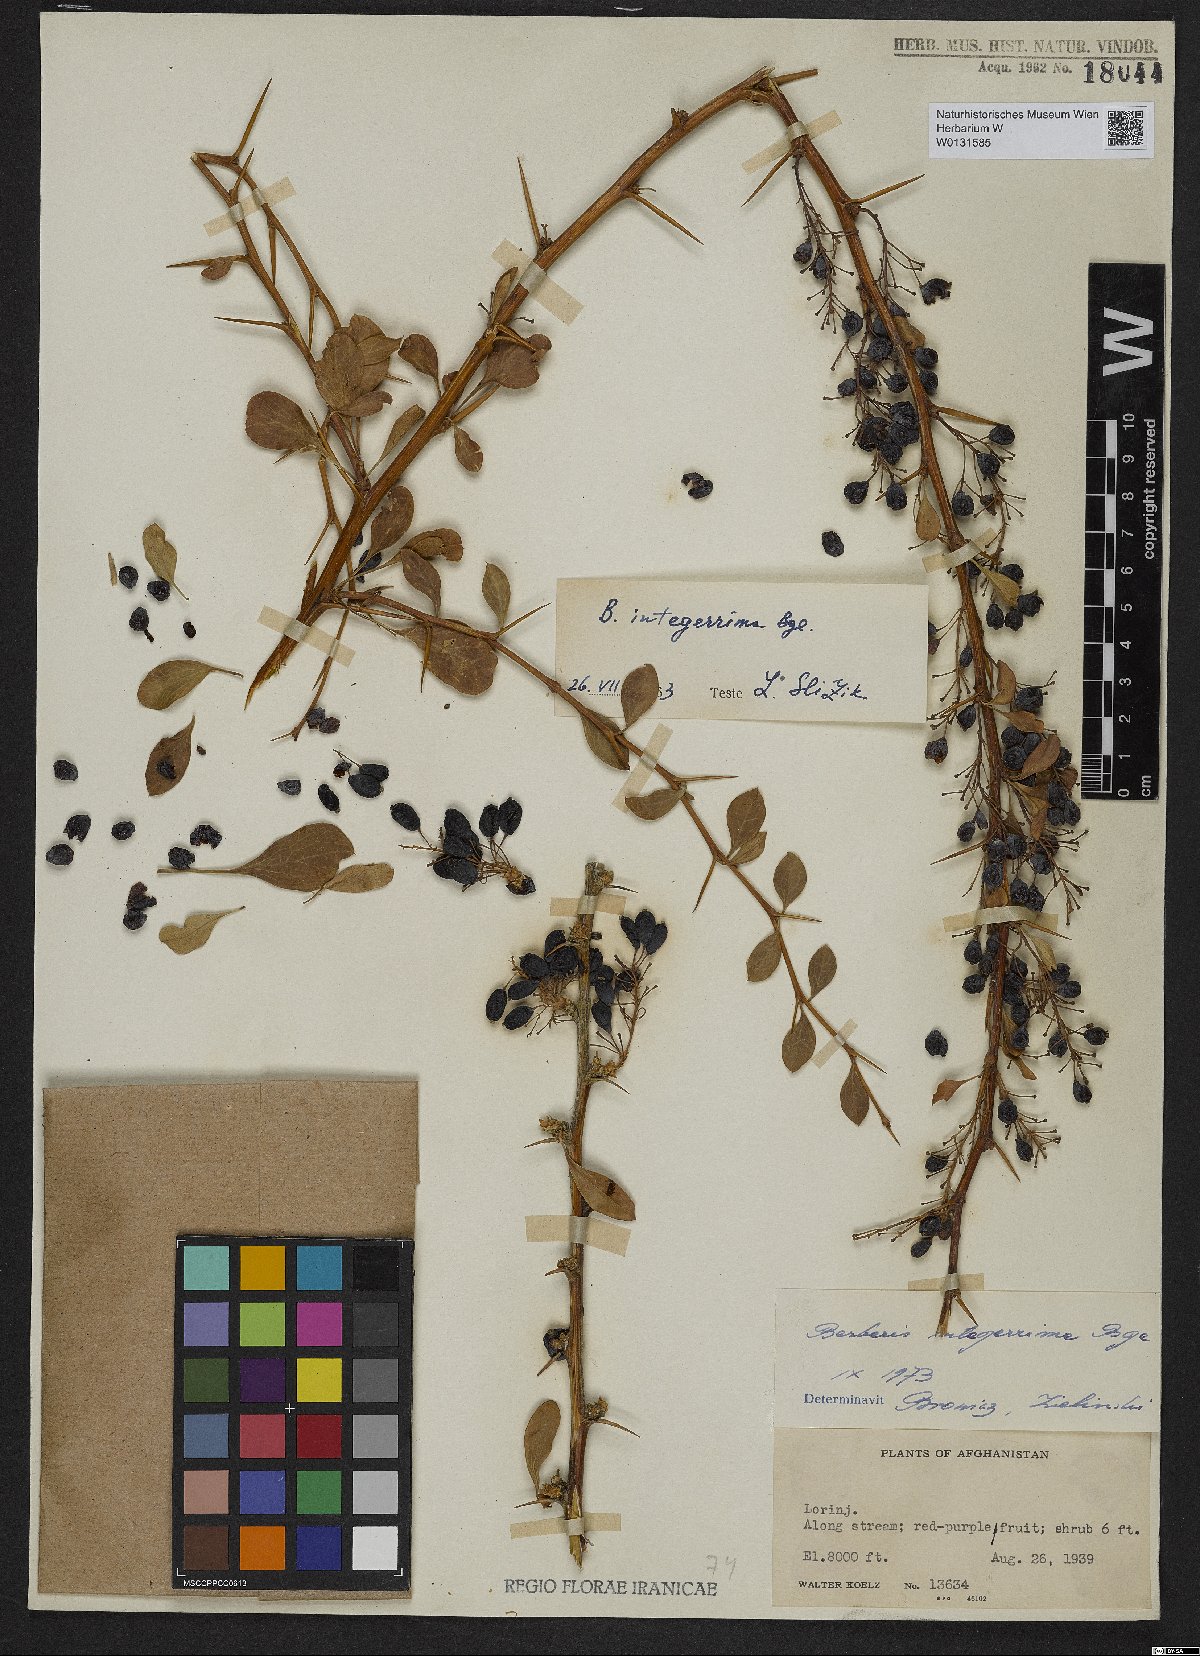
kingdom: Plantae
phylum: Tracheophyta
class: Magnoliopsida
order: Ranunculales
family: Berberidaceae
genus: Berberis
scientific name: Berberis integerrima
